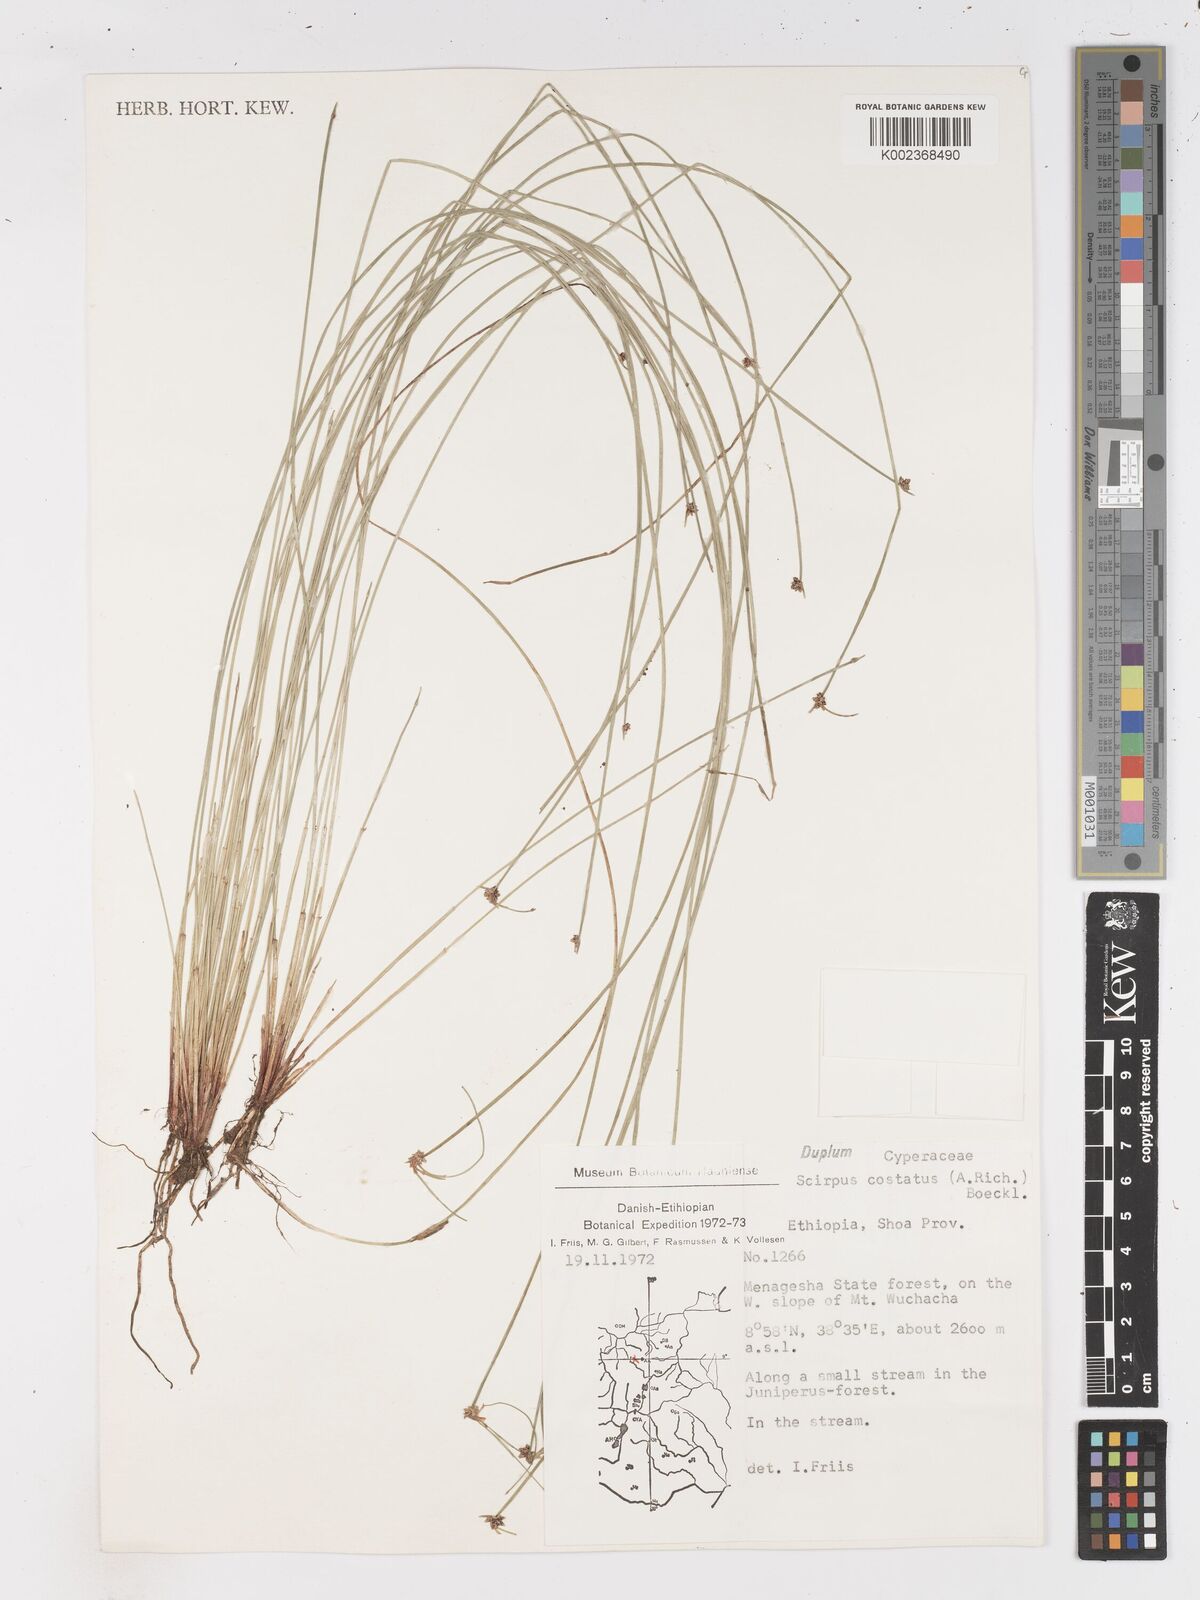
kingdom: Plantae
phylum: Tracheophyta
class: Liliopsida
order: Poales
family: Cyperaceae
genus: Isolepis
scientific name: Isolepis costata
